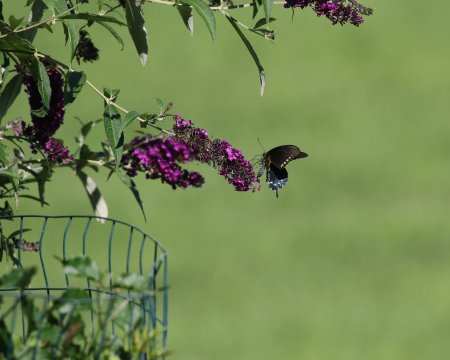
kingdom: Animalia
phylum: Arthropoda
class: Insecta
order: Lepidoptera
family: Papilionidae
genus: Battus
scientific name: Battus philenor
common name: Pipevine Swallowtail
